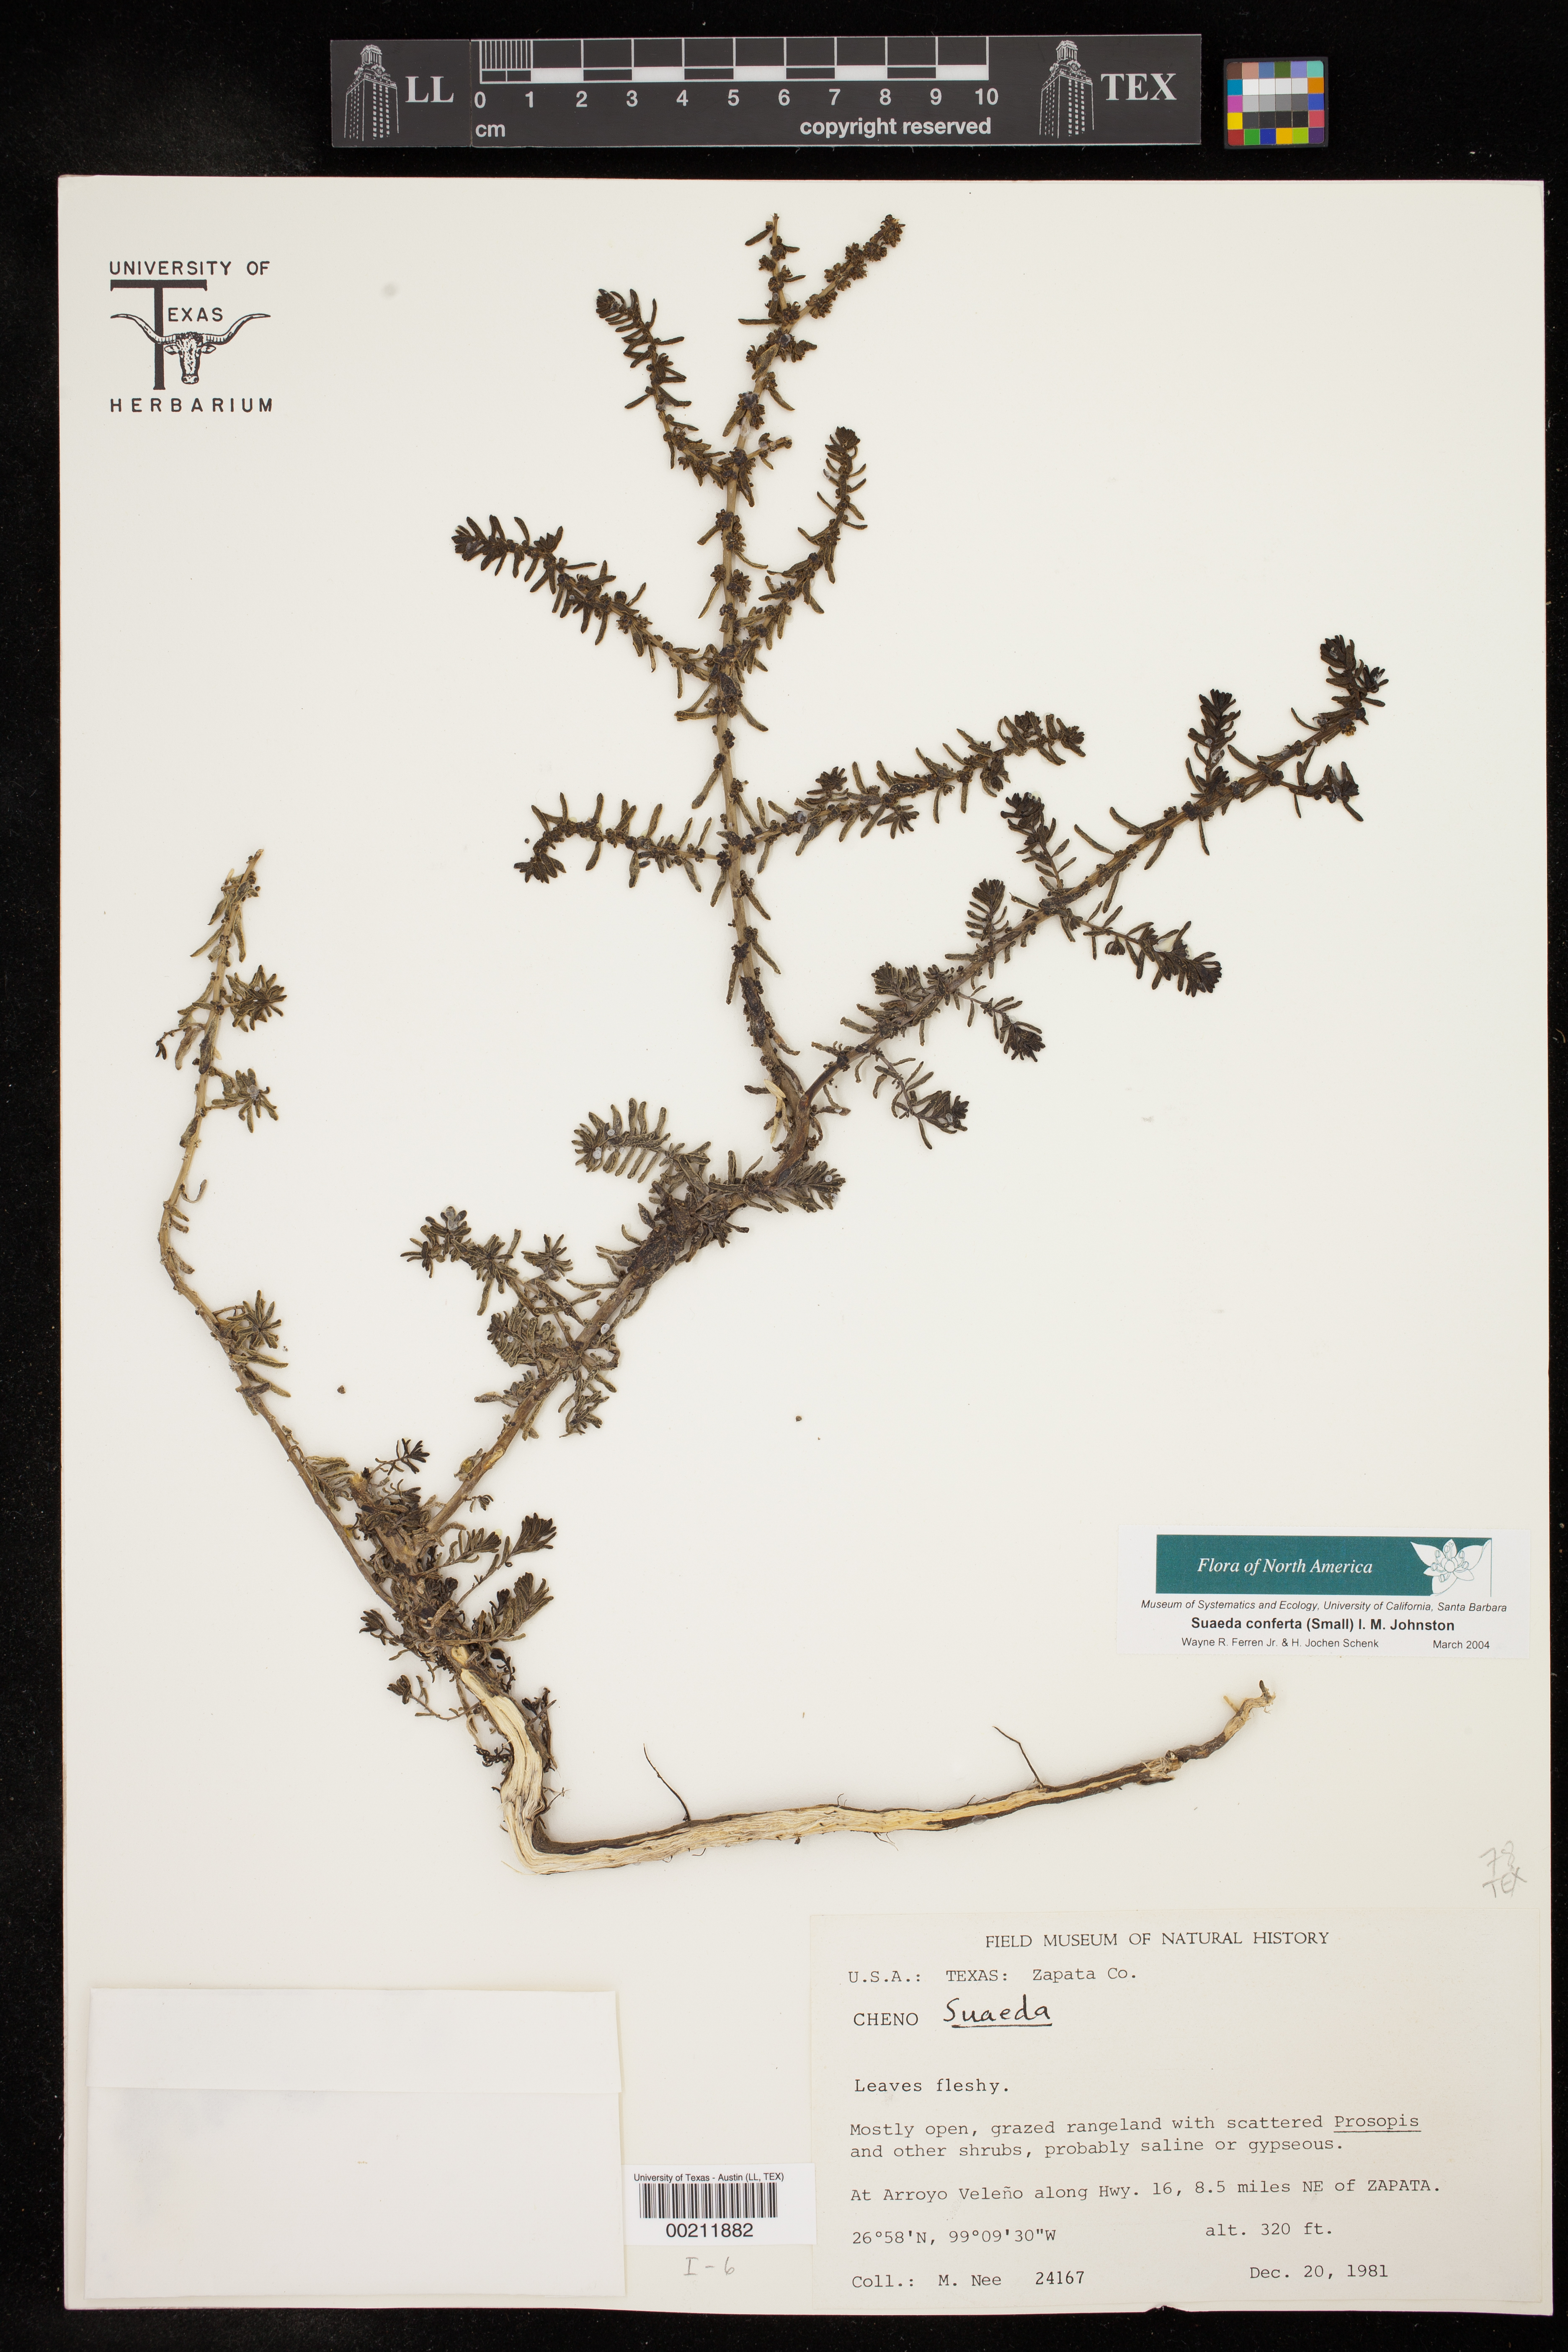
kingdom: Plantae
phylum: Tracheophyta
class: Magnoliopsida
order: Caryophyllales
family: Amaranthaceae
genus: Suaeda
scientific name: Suaeda conferta
